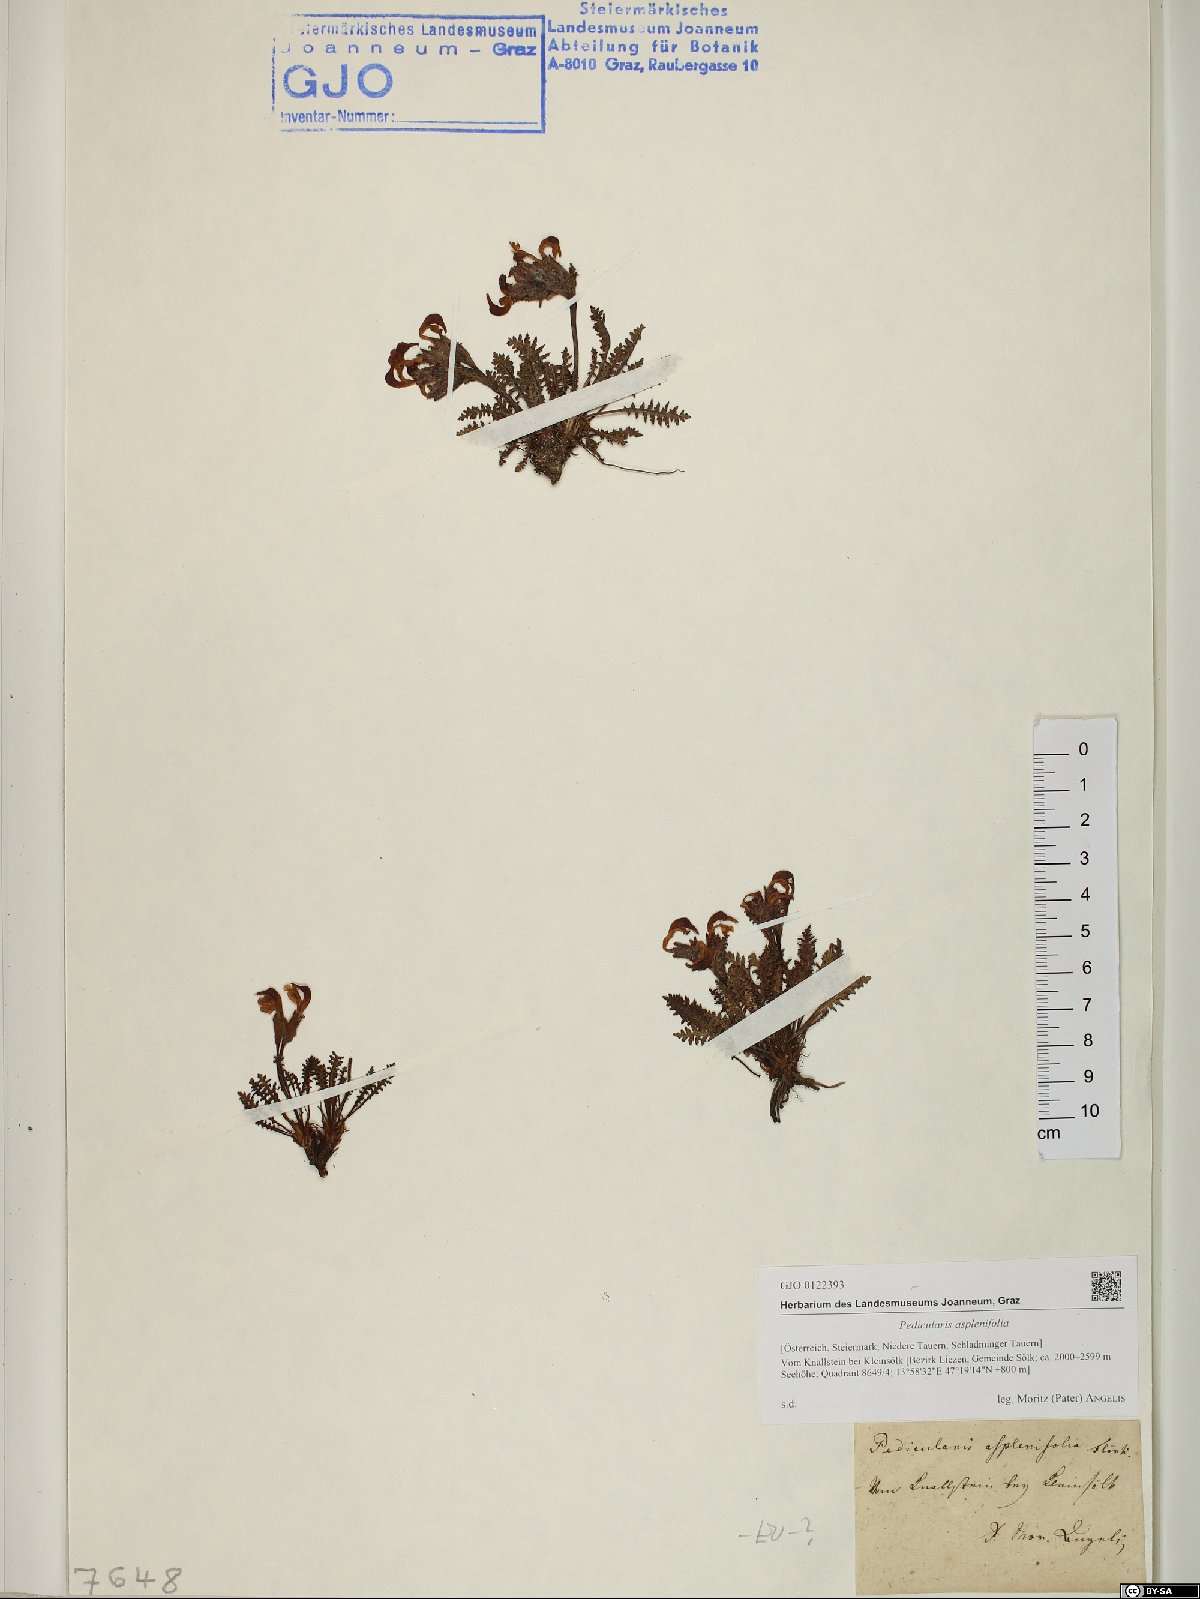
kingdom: Plantae
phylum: Tracheophyta
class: Magnoliopsida
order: Lamiales
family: Orobanchaceae
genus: Pedicularis
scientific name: Pedicularis asplenifolia
